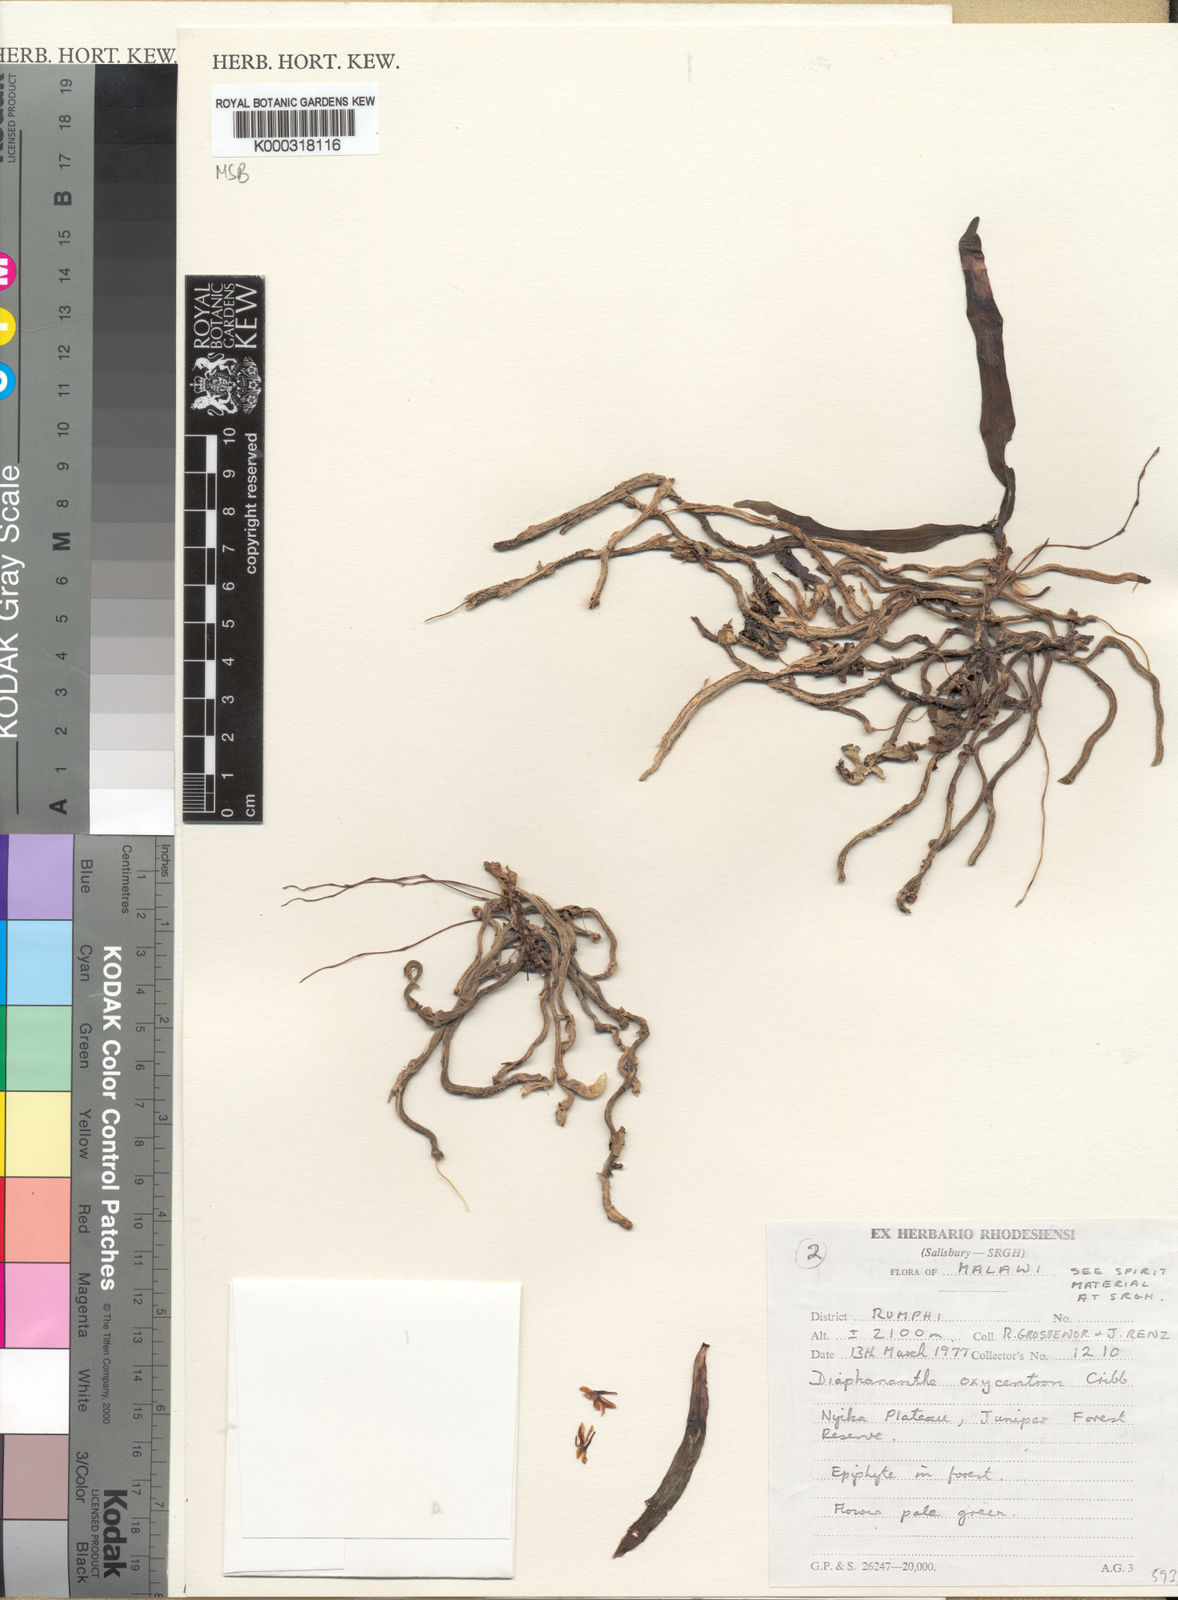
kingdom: Plantae
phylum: Tracheophyta
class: Liliopsida
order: Asparagales
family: Orchidaceae
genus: Rhipidoglossum
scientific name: Rhipidoglossum oxycentron
